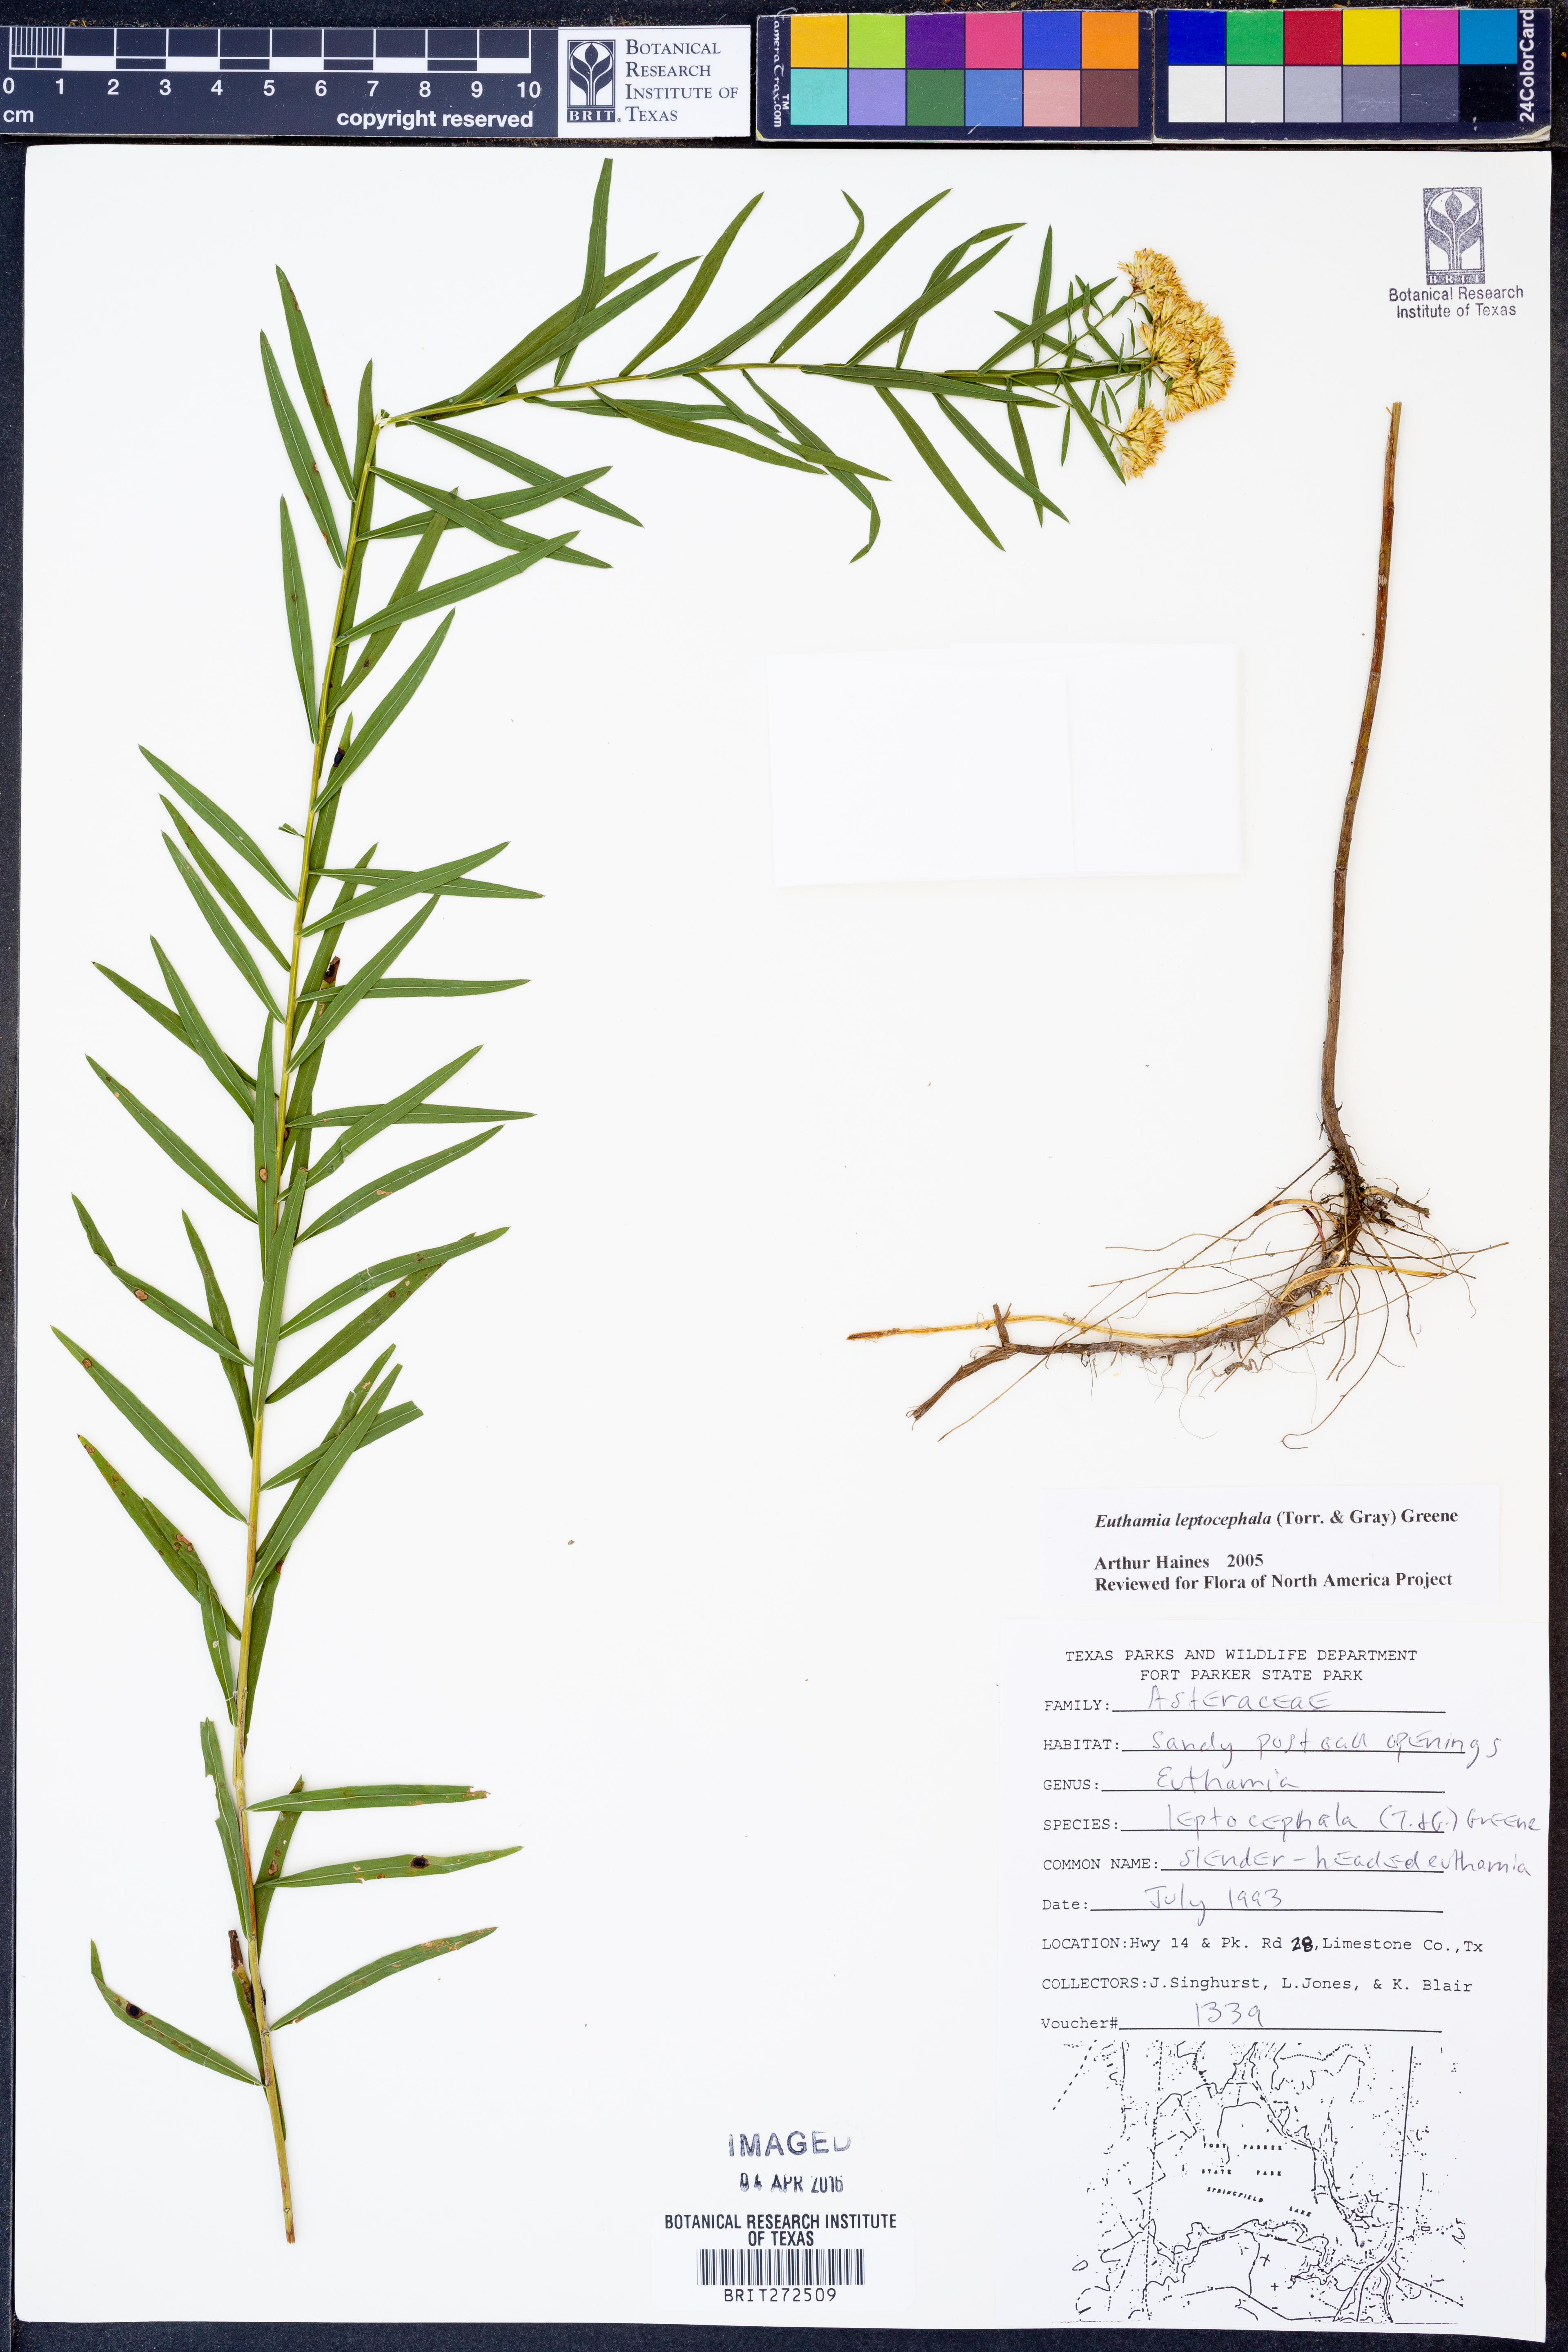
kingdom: Plantae
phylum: Tracheophyta
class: Magnoliopsida
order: Asterales
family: Asteraceae
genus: Euthamia
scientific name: Euthamia leptocephala
